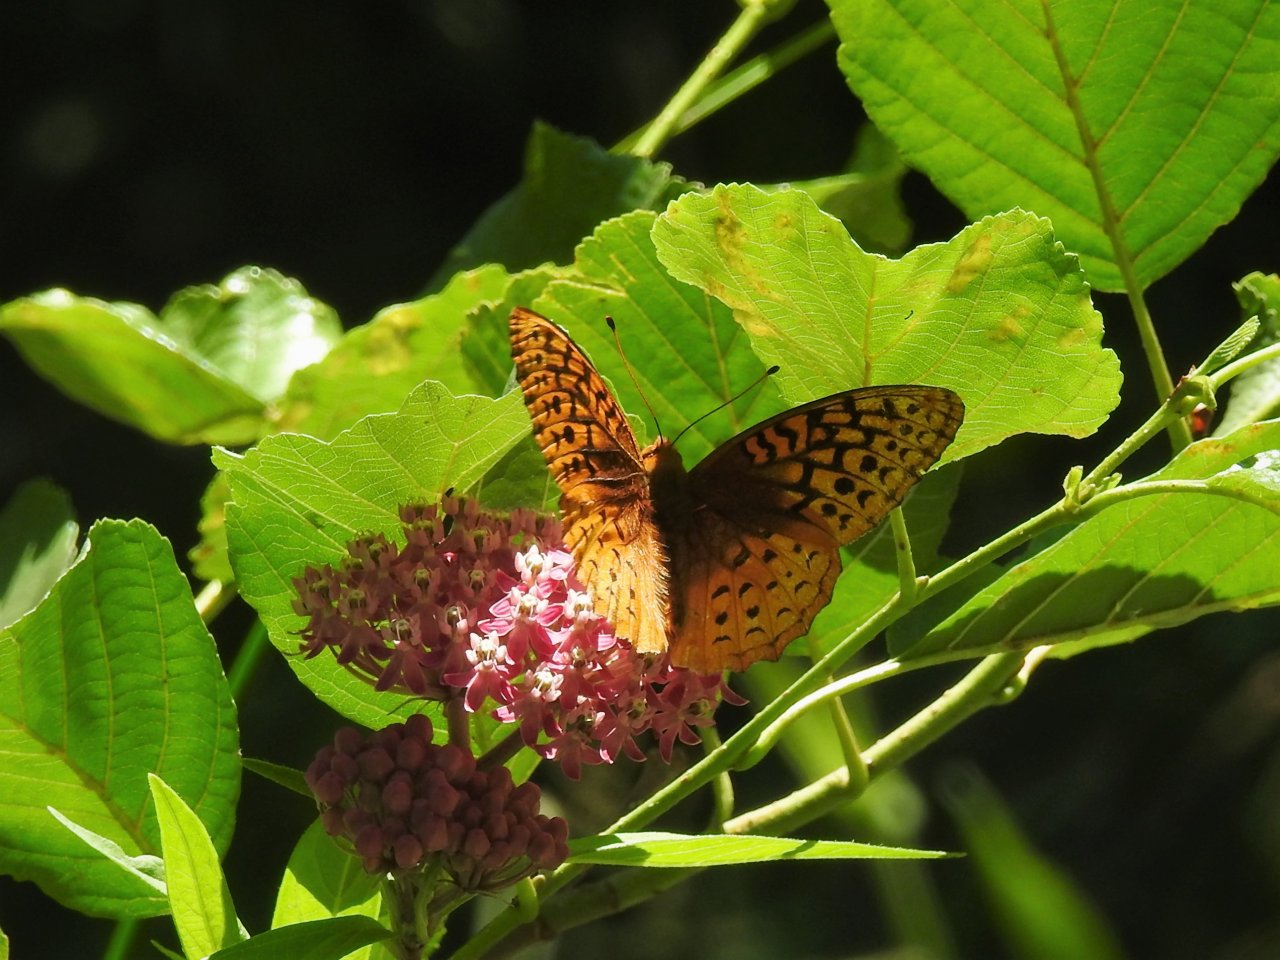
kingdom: Animalia
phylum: Arthropoda
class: Insecta
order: Lepidoptera
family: Nymphalidae
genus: Speyeria
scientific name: Speyeria cybele
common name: Great Spangled Fritillary
